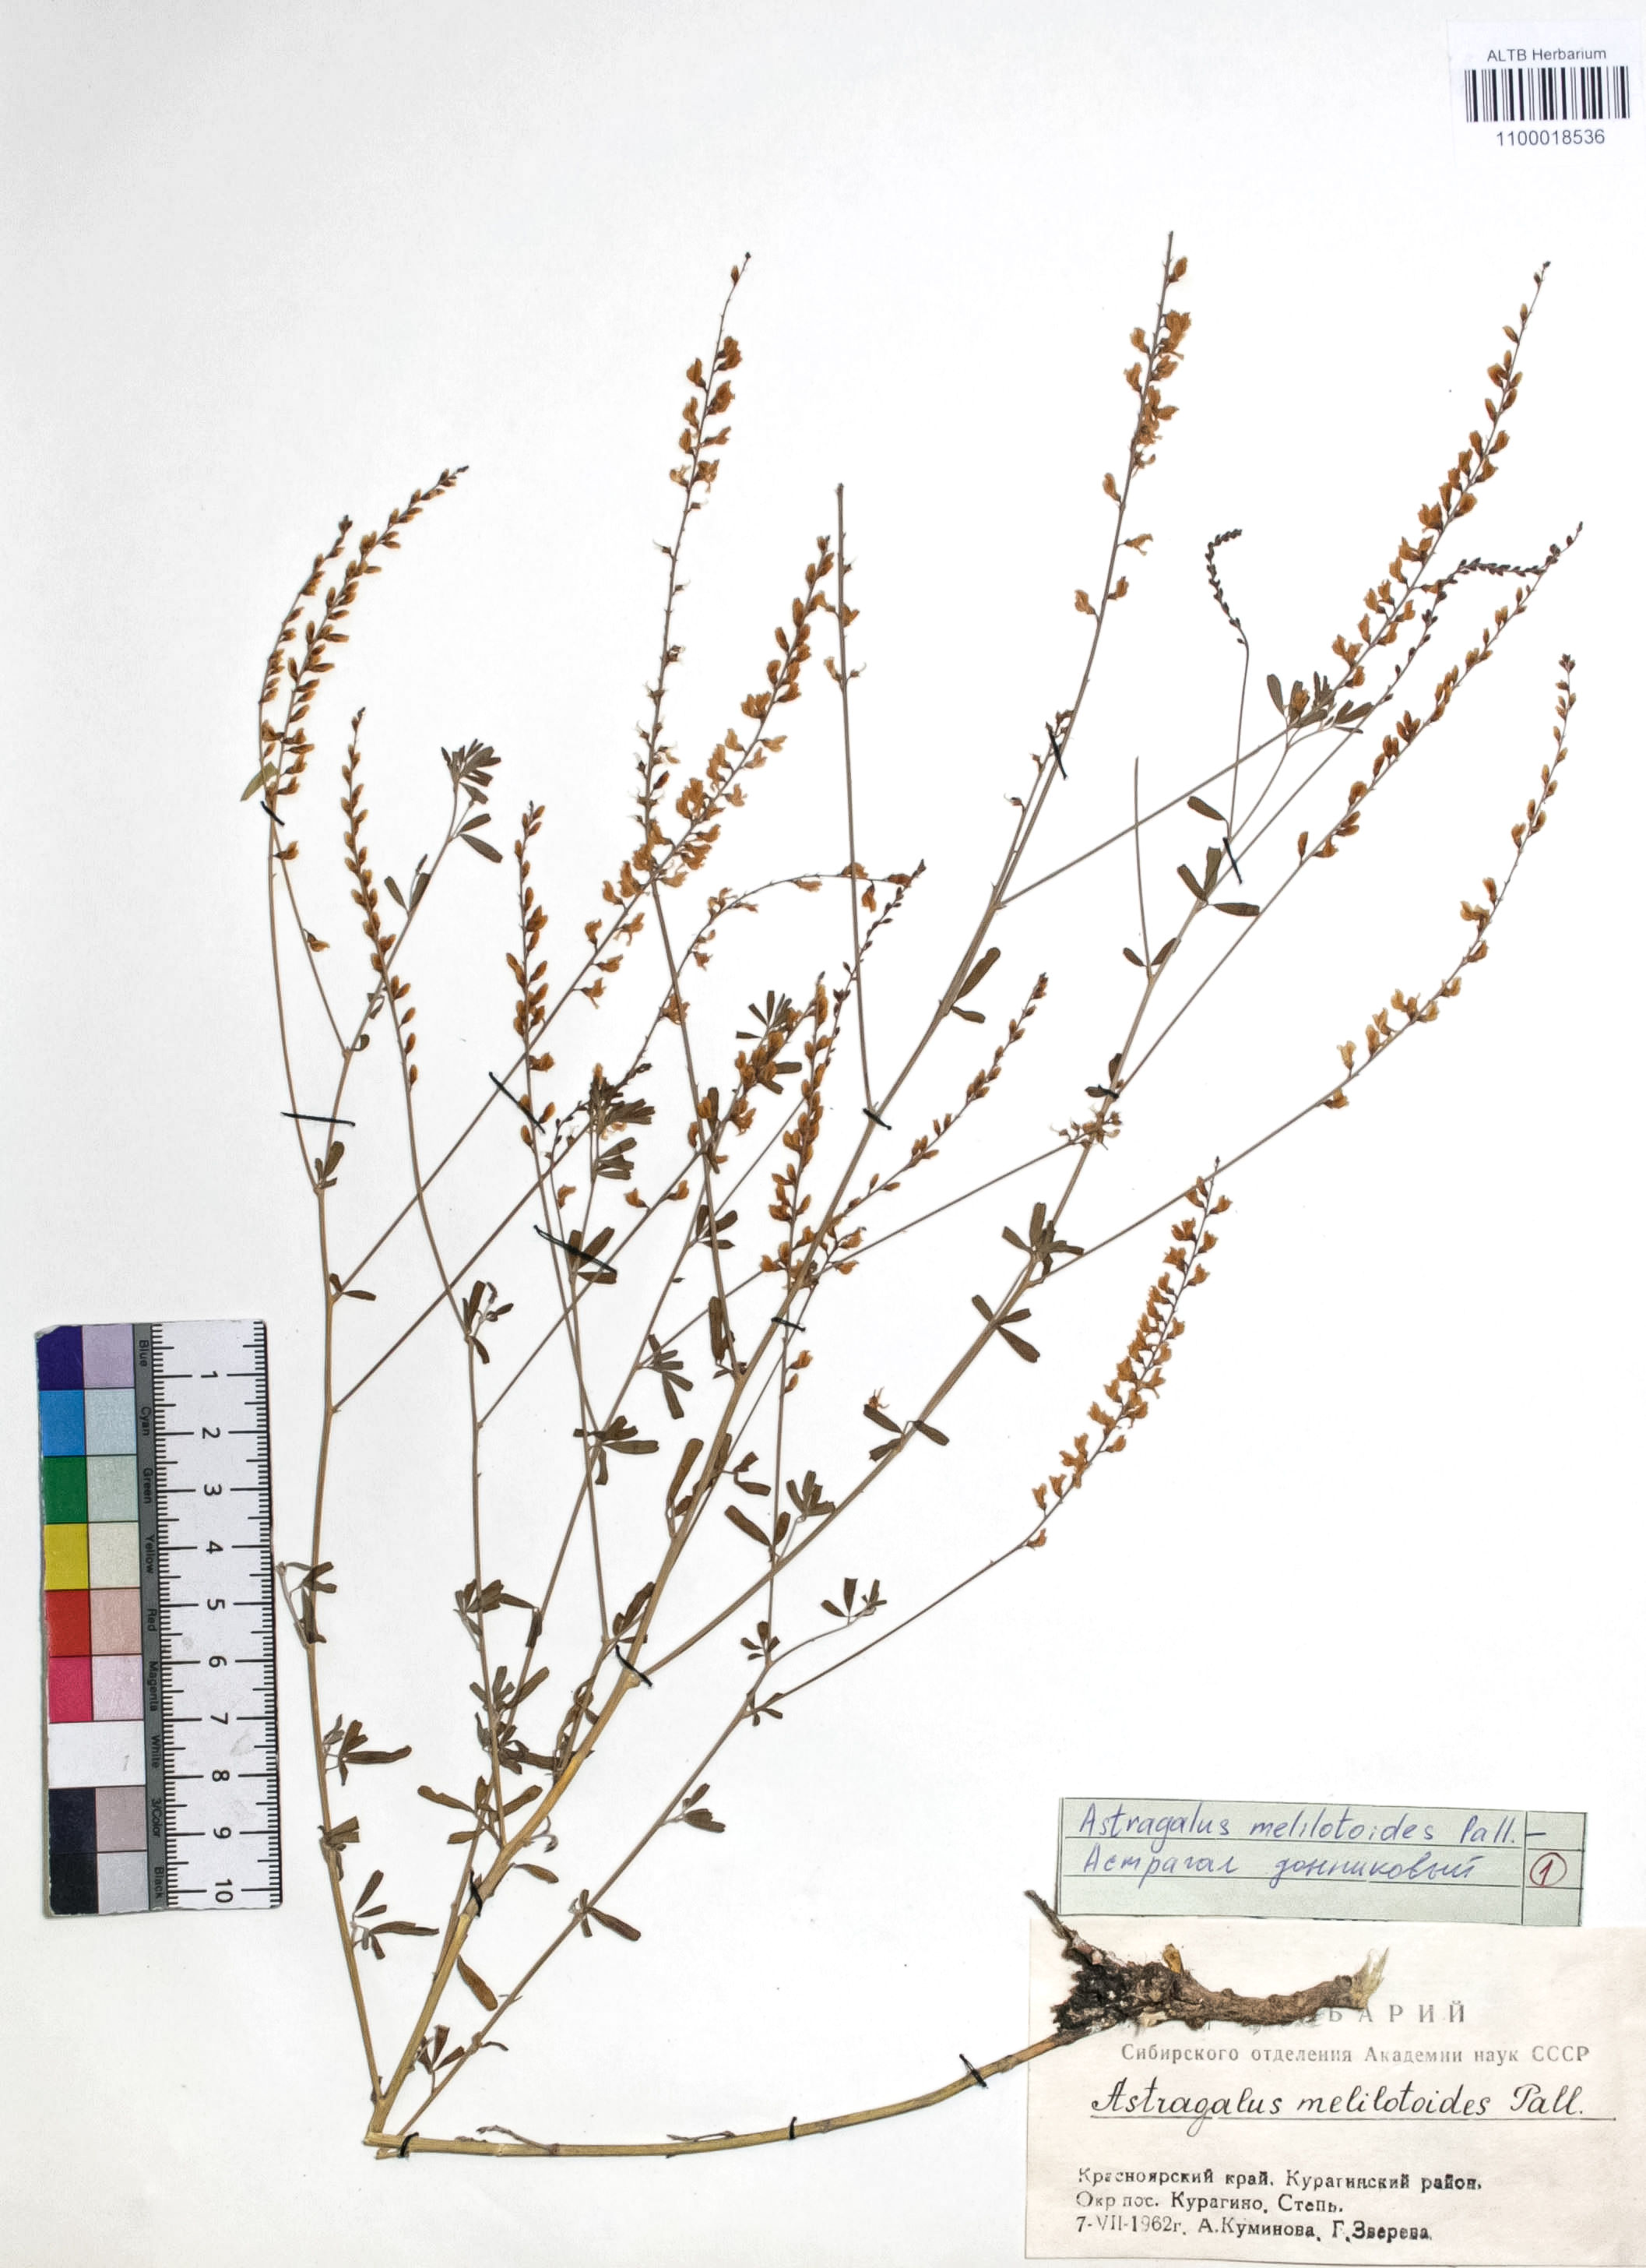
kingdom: Plantae
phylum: Tracheophyta
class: Magnoliopsida
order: Fabales
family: Fabaceae
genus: Astragalus
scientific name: Astragalus melilotoides
